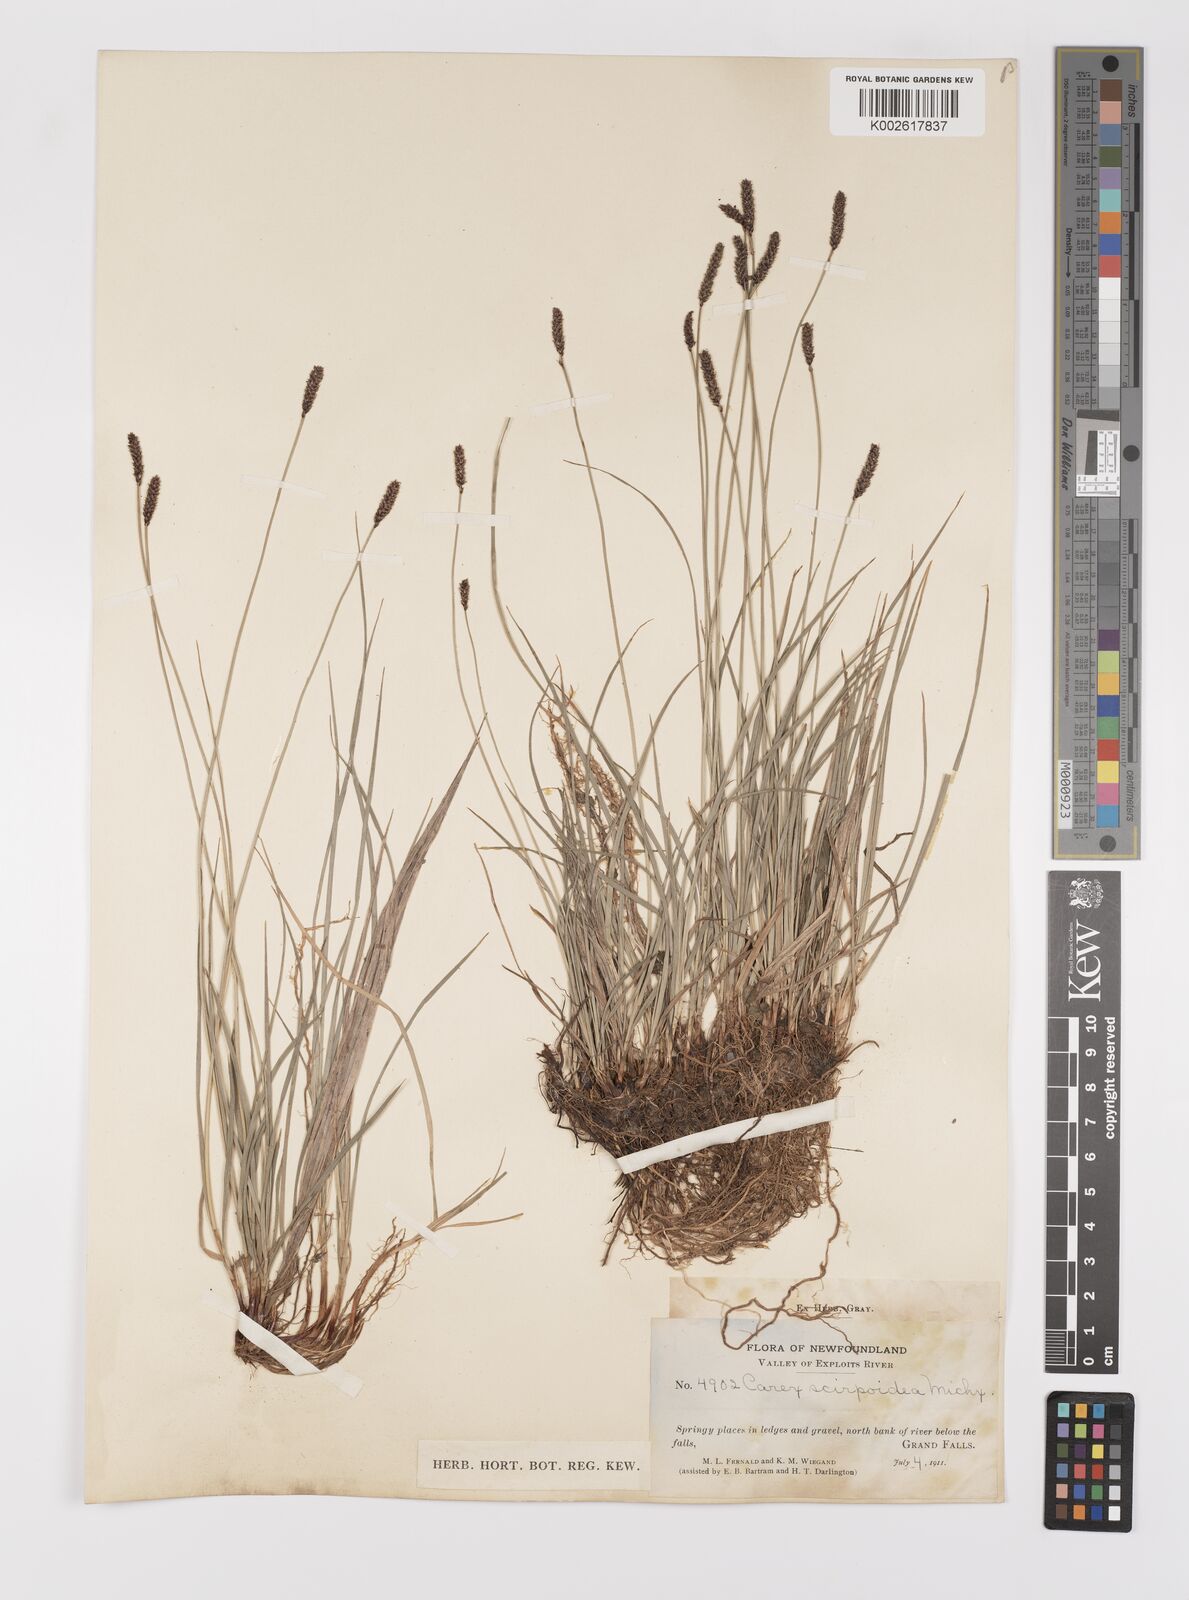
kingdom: Plantae
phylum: Tracheophyta
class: Liliopsida
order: Poales
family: Cyperaceae
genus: Carex
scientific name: Carex scirpoidea
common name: Canada single-spike sedge
